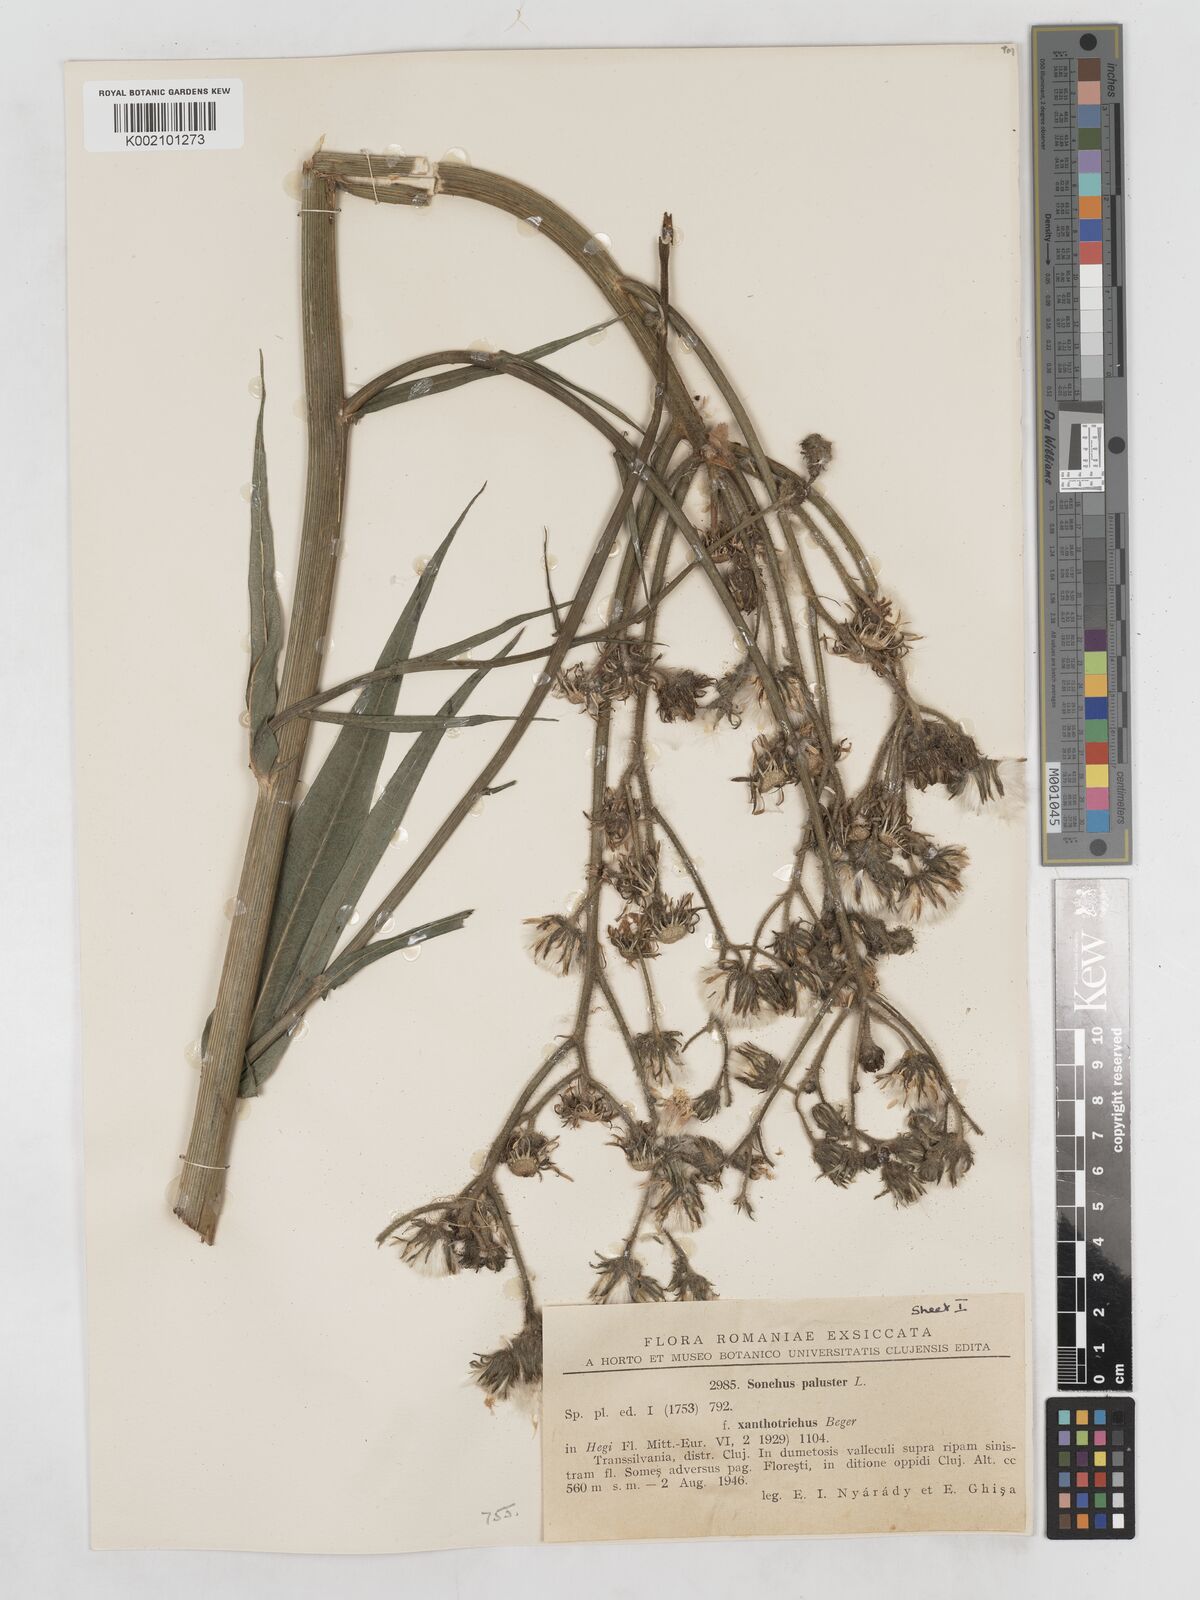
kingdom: Plantae
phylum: Tracheophyta
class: Magnoliopsida
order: Asterales
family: Asteraceae
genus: Sonchus
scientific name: Sonchus palustris
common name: Marsh sow-thistle
